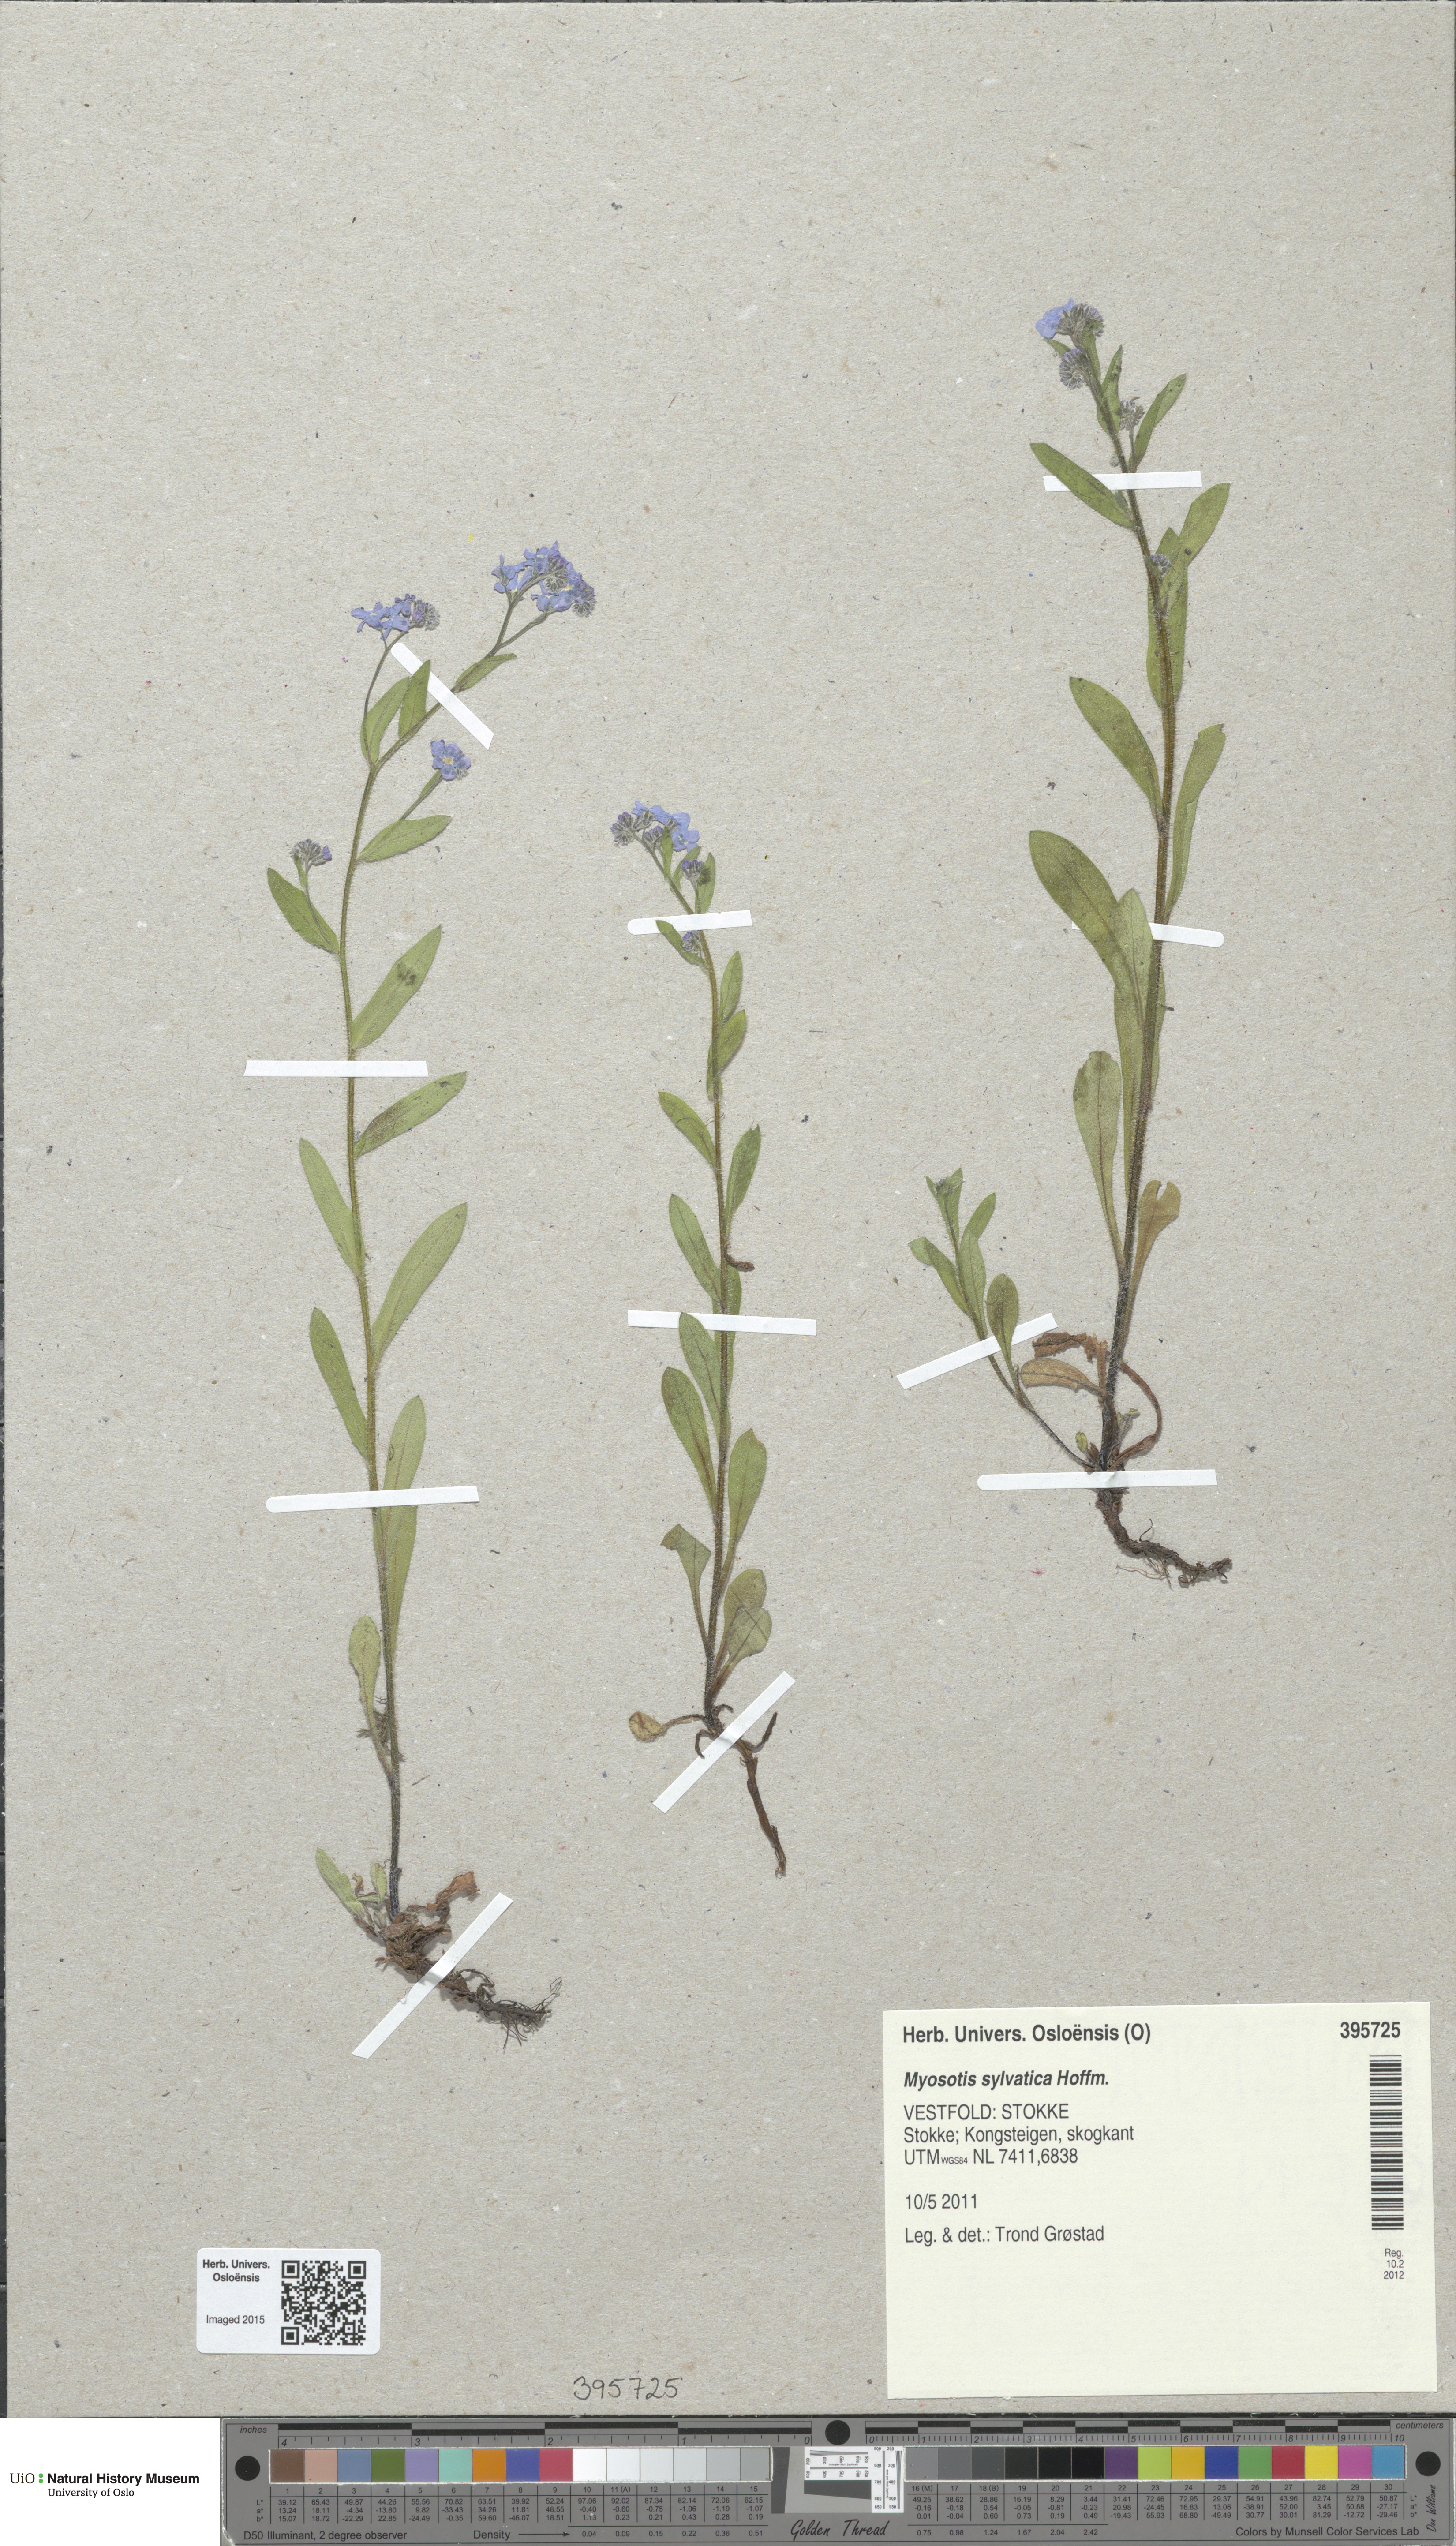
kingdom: Plantae
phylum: Tracheophyta
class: Magnoliopsida
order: Boraginales
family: Boraginaceae
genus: Myosotis
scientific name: Myosotis sylvatica
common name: Wood forget-me-not
